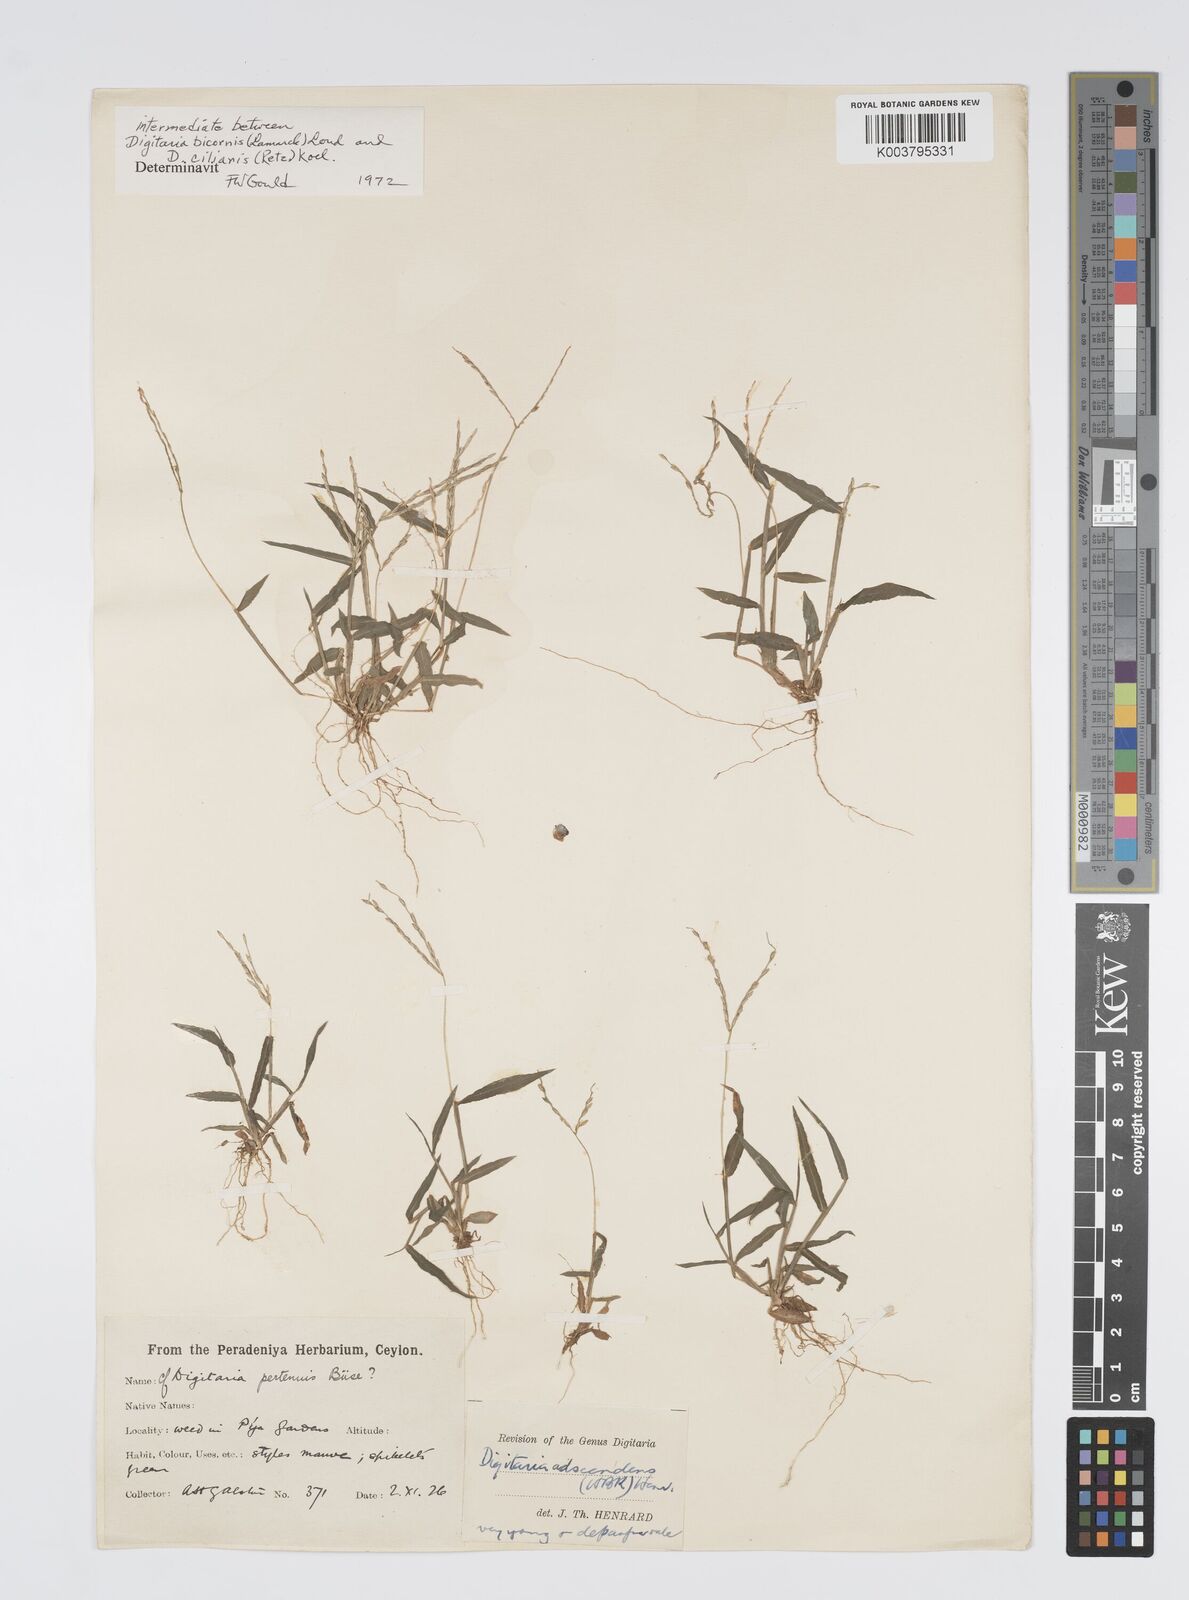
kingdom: Plantae
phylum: Tracheophyta
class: Liliopsida
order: Poales
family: Poaceae
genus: Digitaria
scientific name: Digitaria ciliaris
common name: Tropical finger-grass
